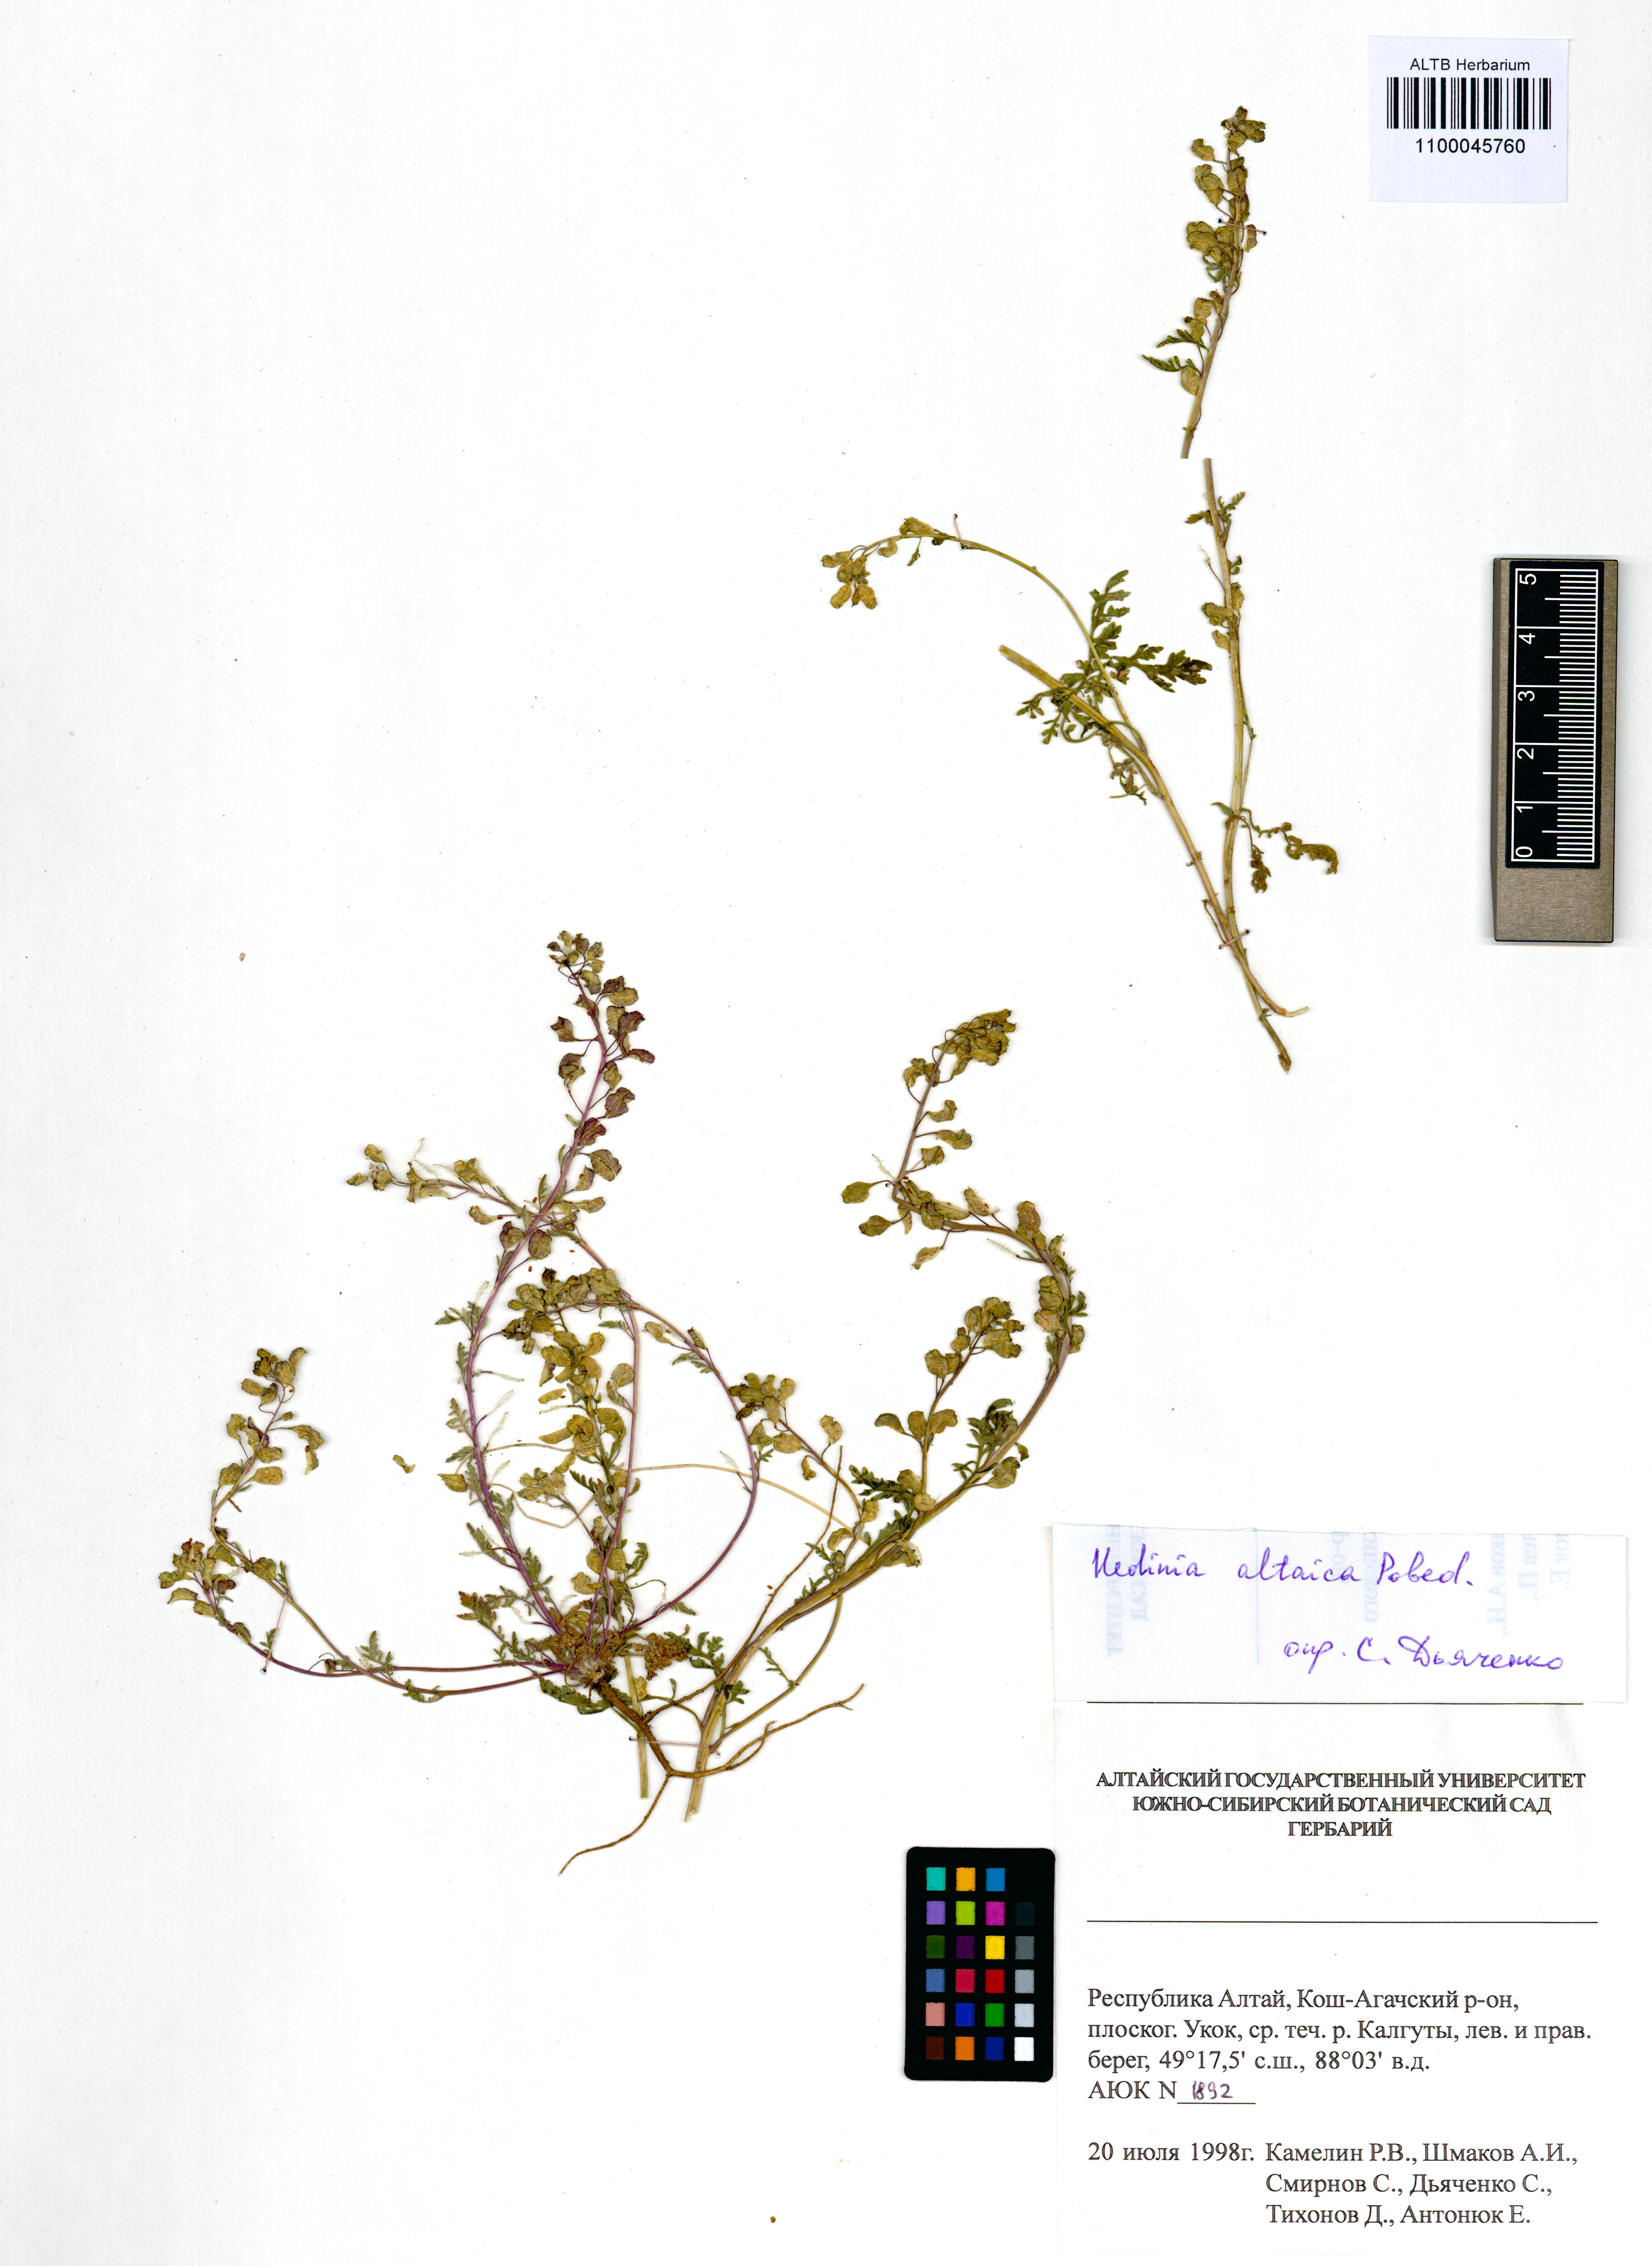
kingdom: Plantae
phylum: Tracheophyta
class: Magnoliopsida
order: Brassicales
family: Brassicaceae
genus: Smelowskia
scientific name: Smelowskia altaica
